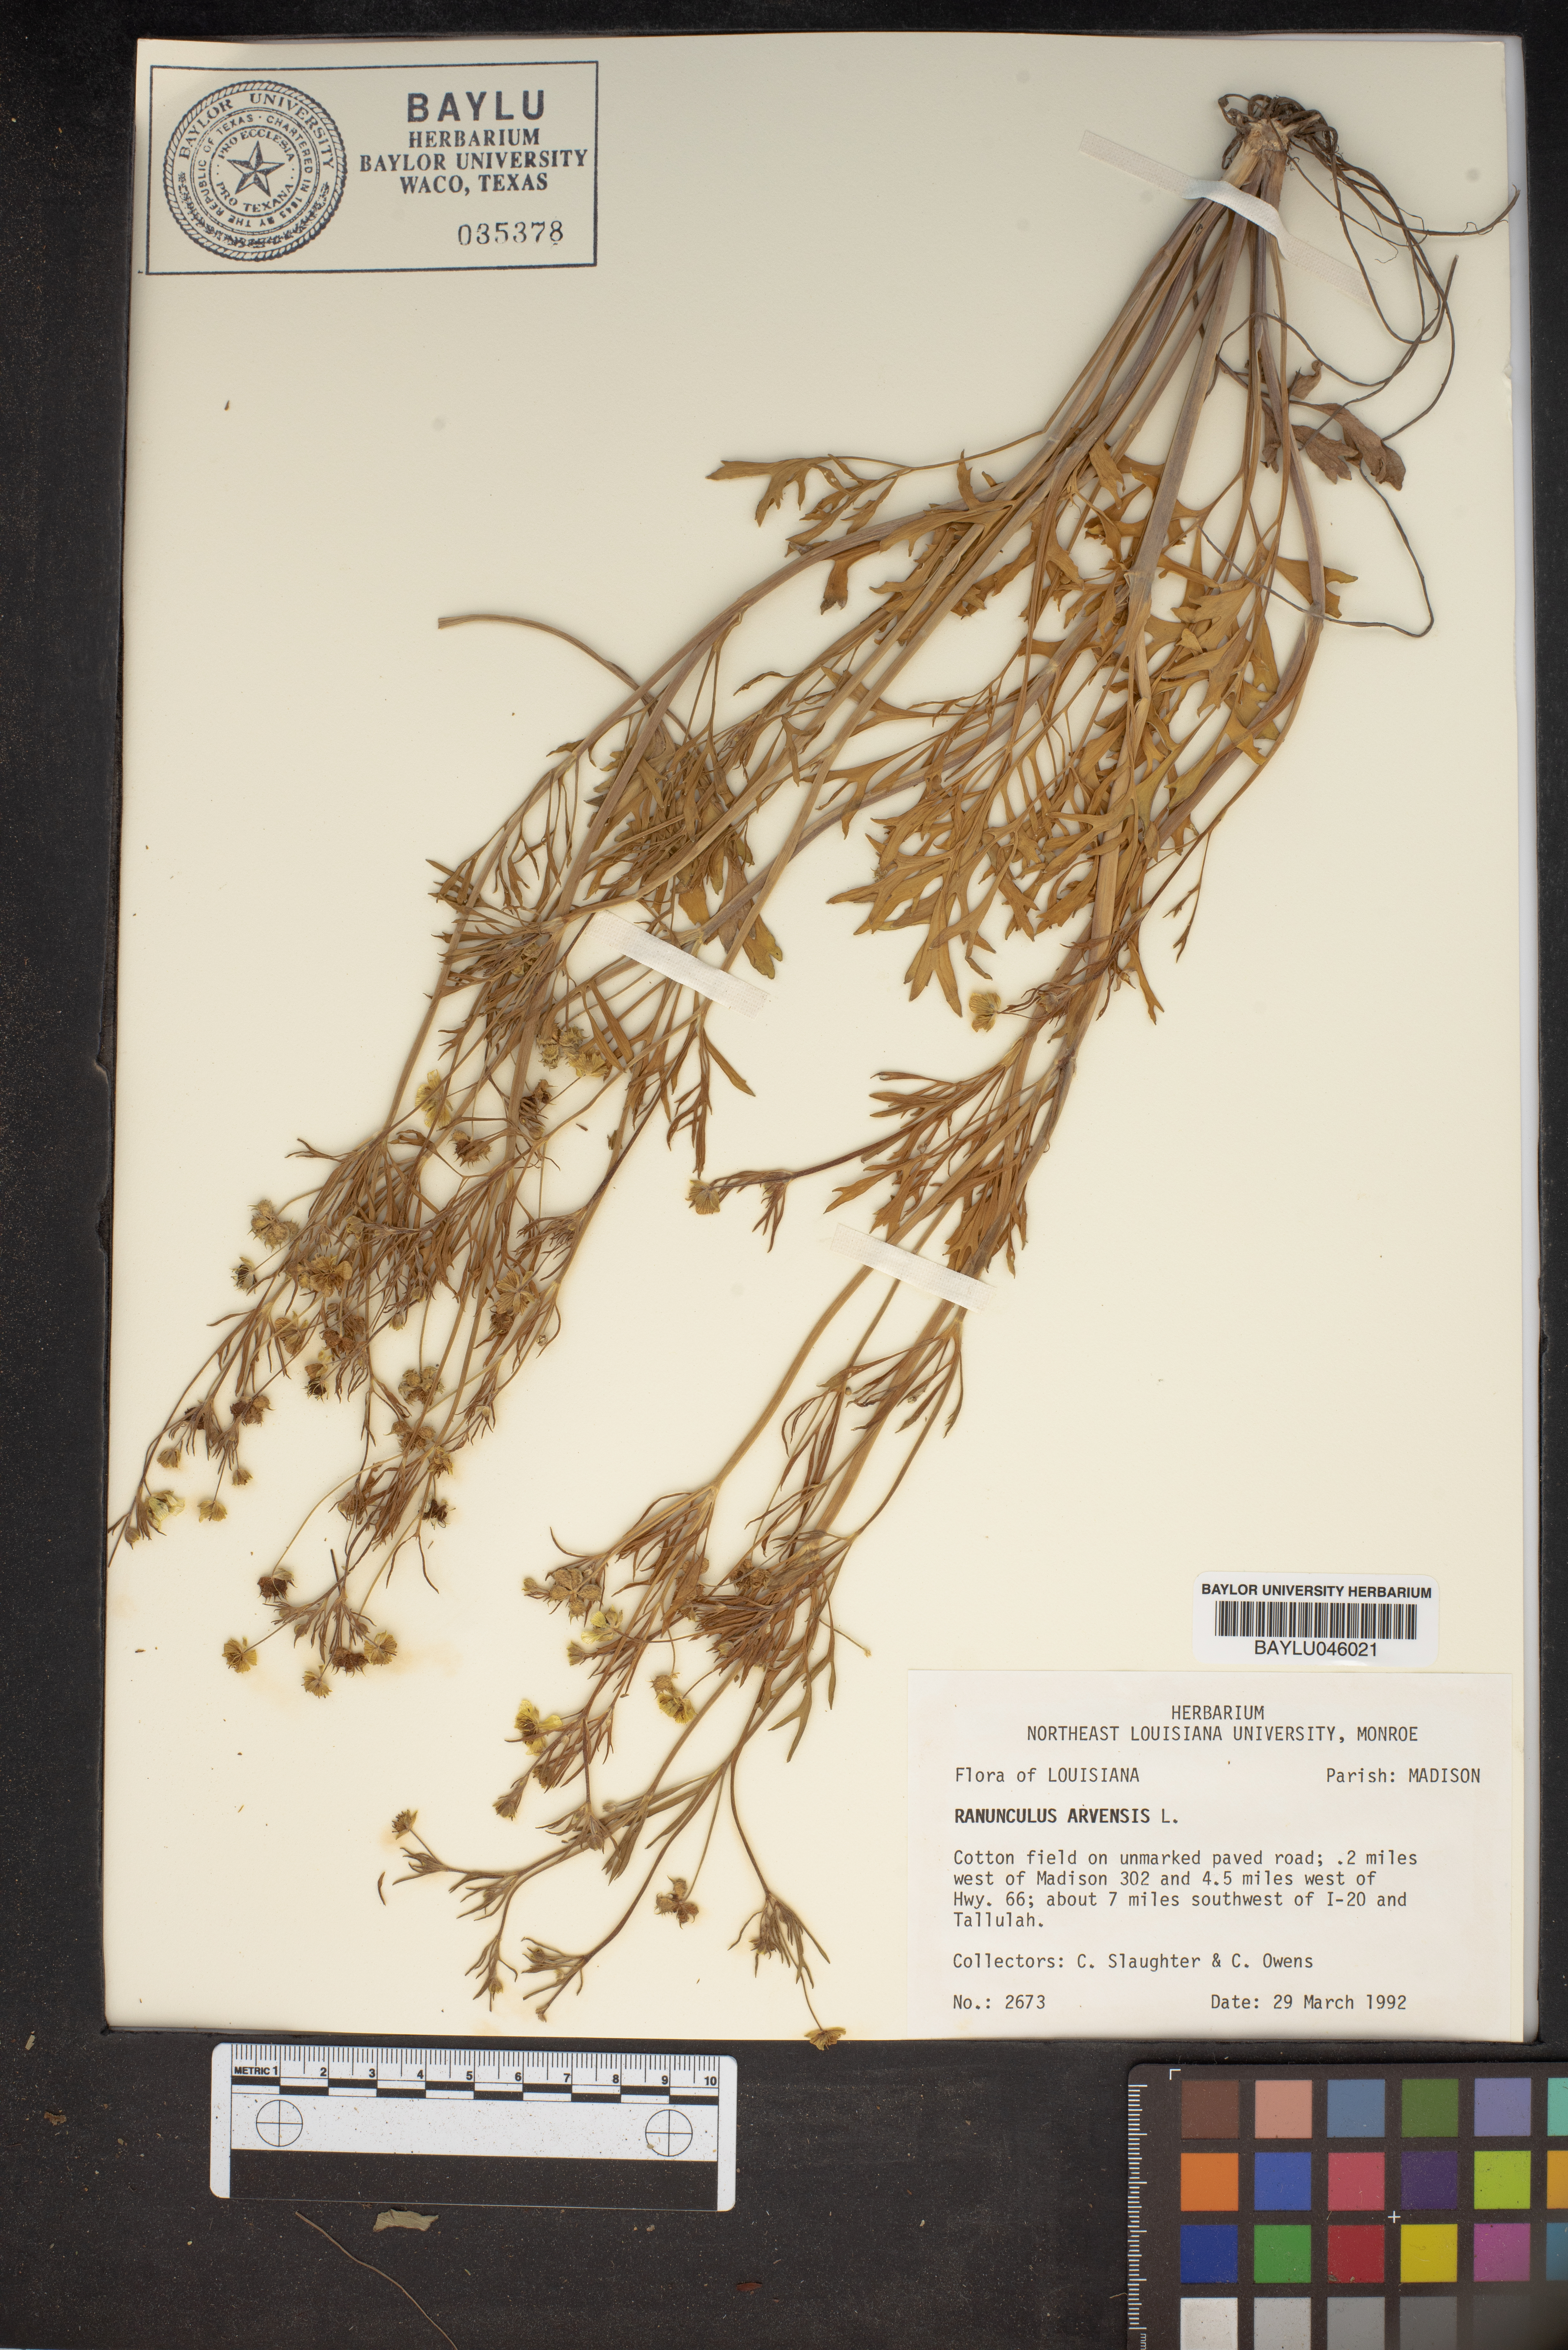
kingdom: Plantae
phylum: Tracheophyta
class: Magnoliopsida
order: Ranunculales
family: Ranunculaceae
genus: Ranunculus
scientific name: Ranunculus arvensis
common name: Corn buttercup
